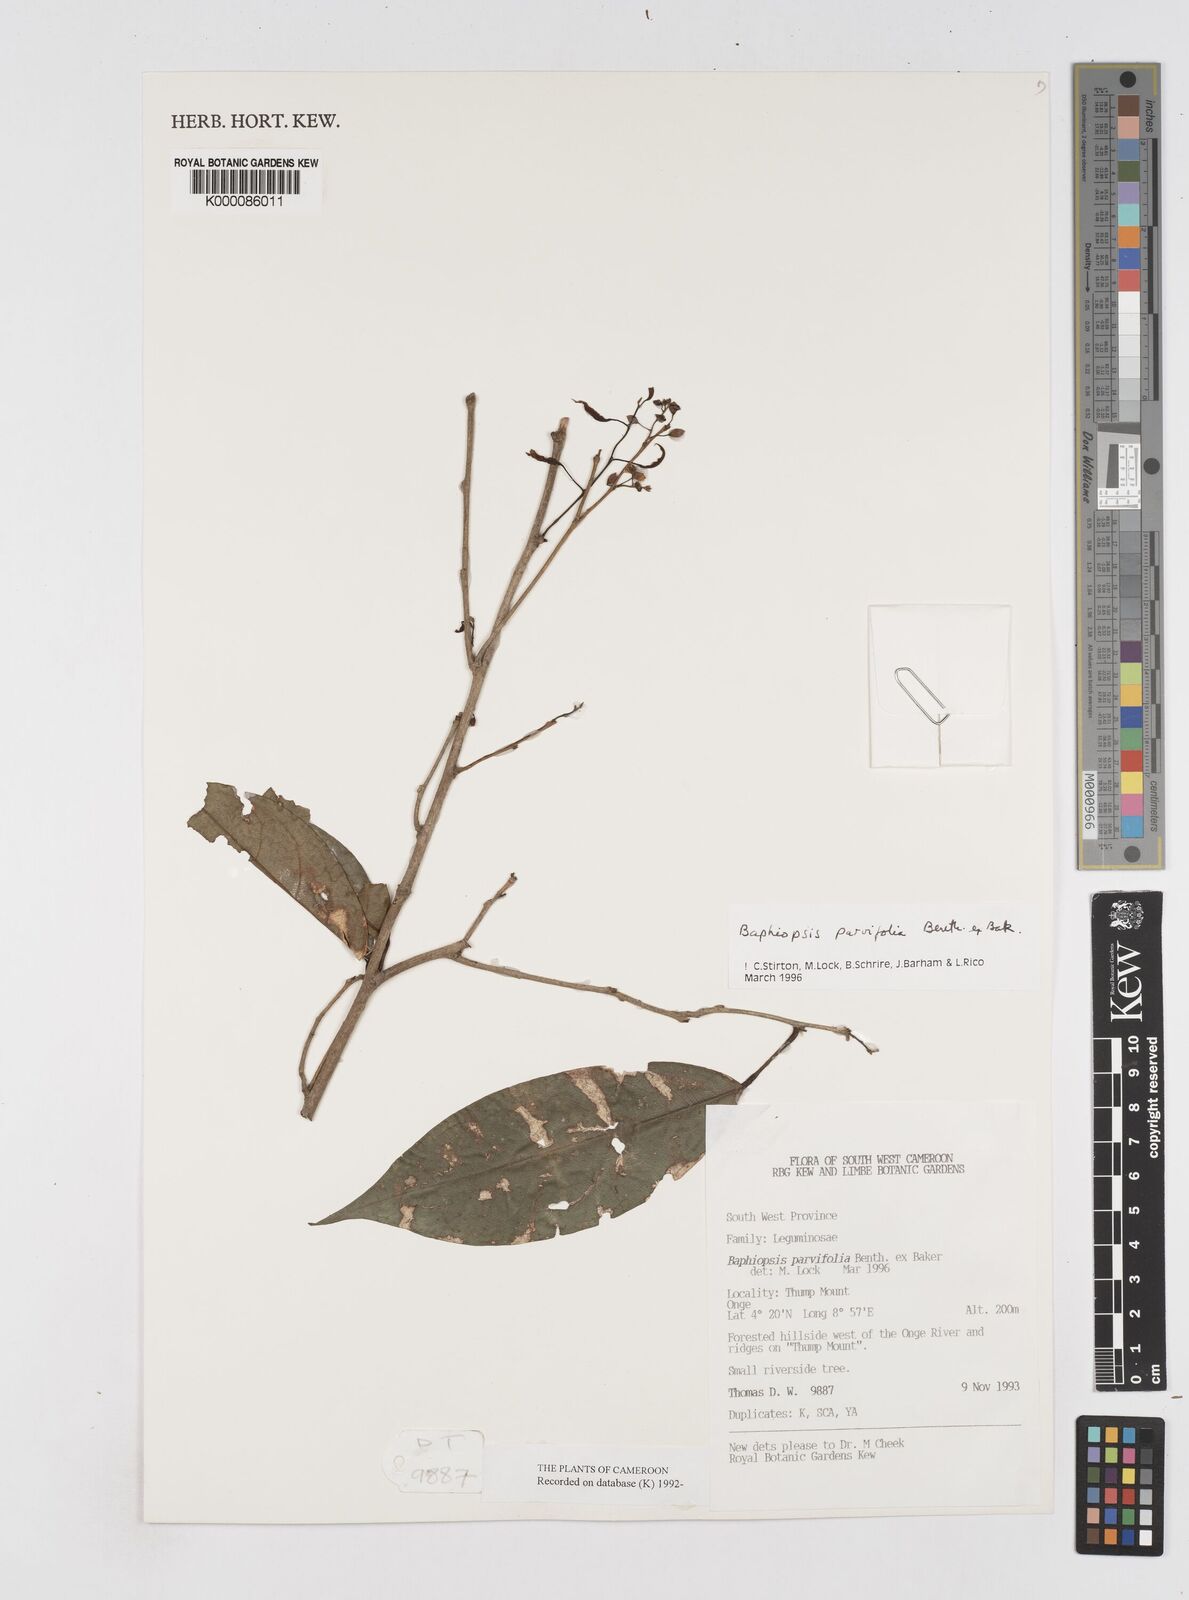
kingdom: Plantae
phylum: Tracheophyta
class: Magnoliopsida
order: Fabales
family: Fabaceae
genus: Baphiopsis
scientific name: Baphiopsis parviflora
